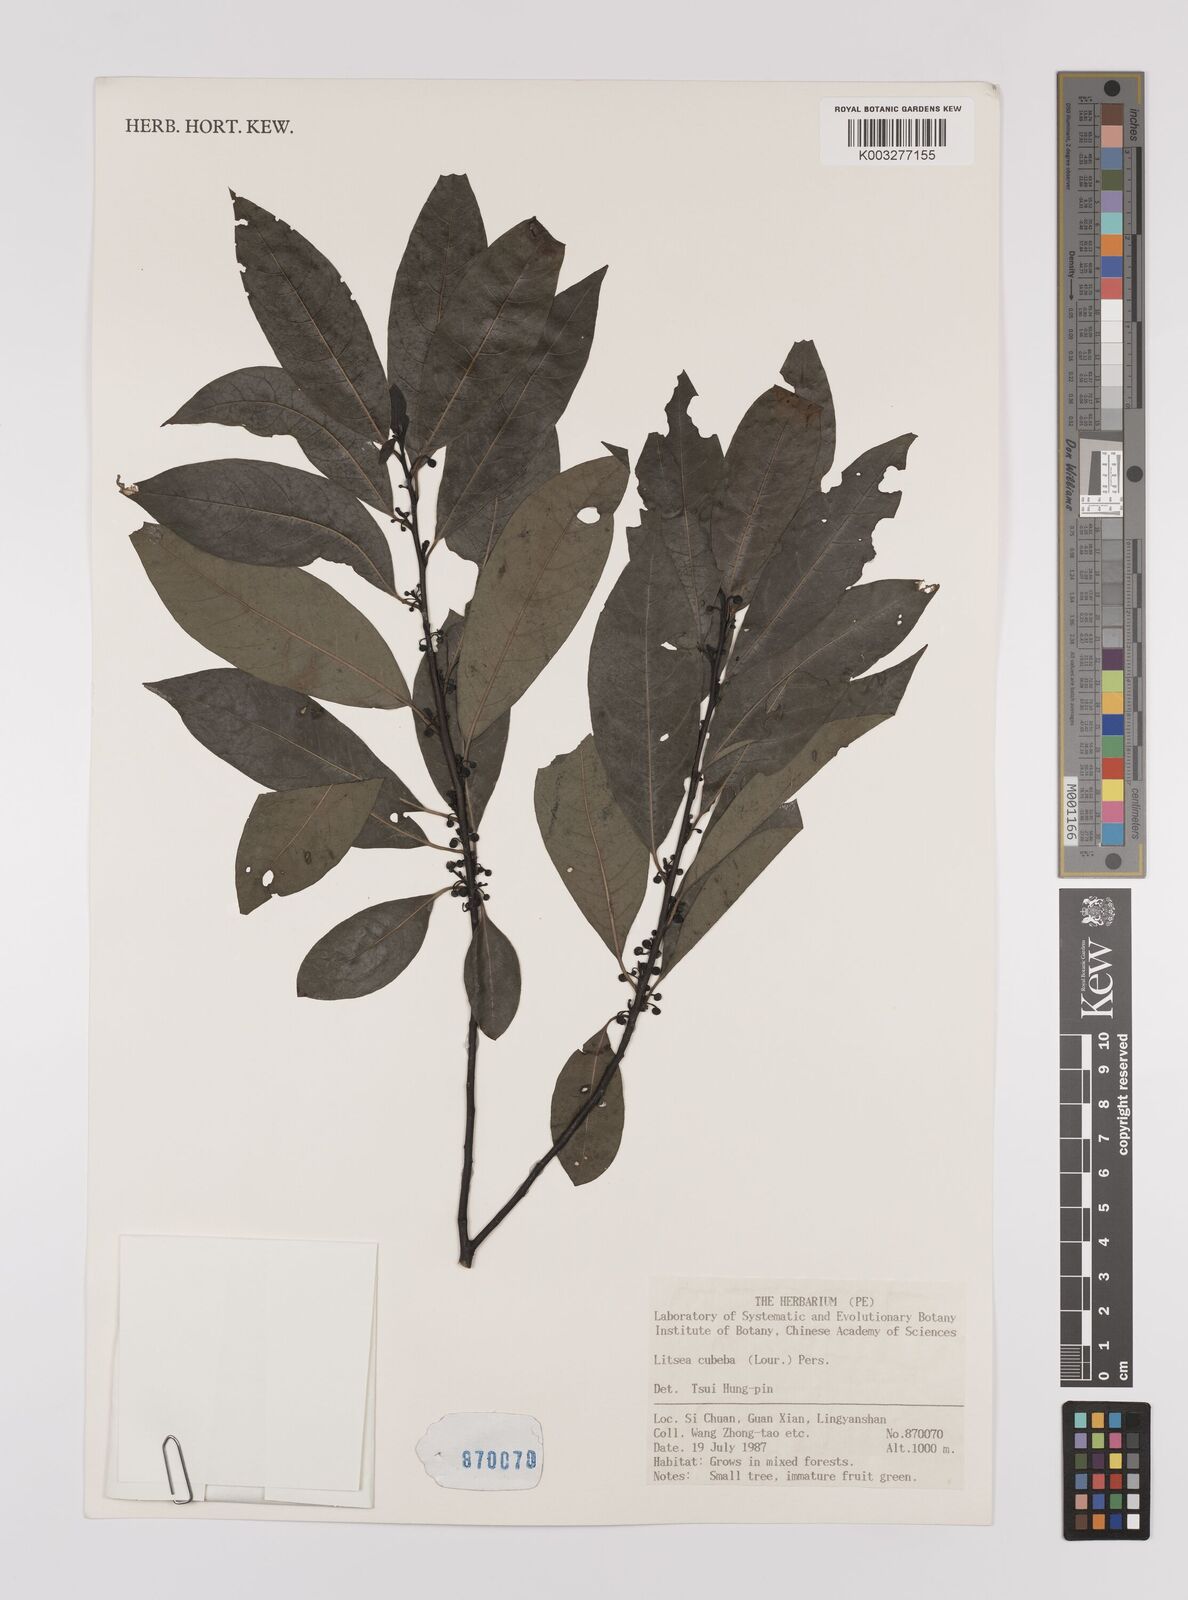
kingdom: Plantae
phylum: Tracheophyta
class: Magnoliopsida
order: Laurales
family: Lauraceae
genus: Litsea
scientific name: Litsea cubeba
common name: Mountain-pepper
